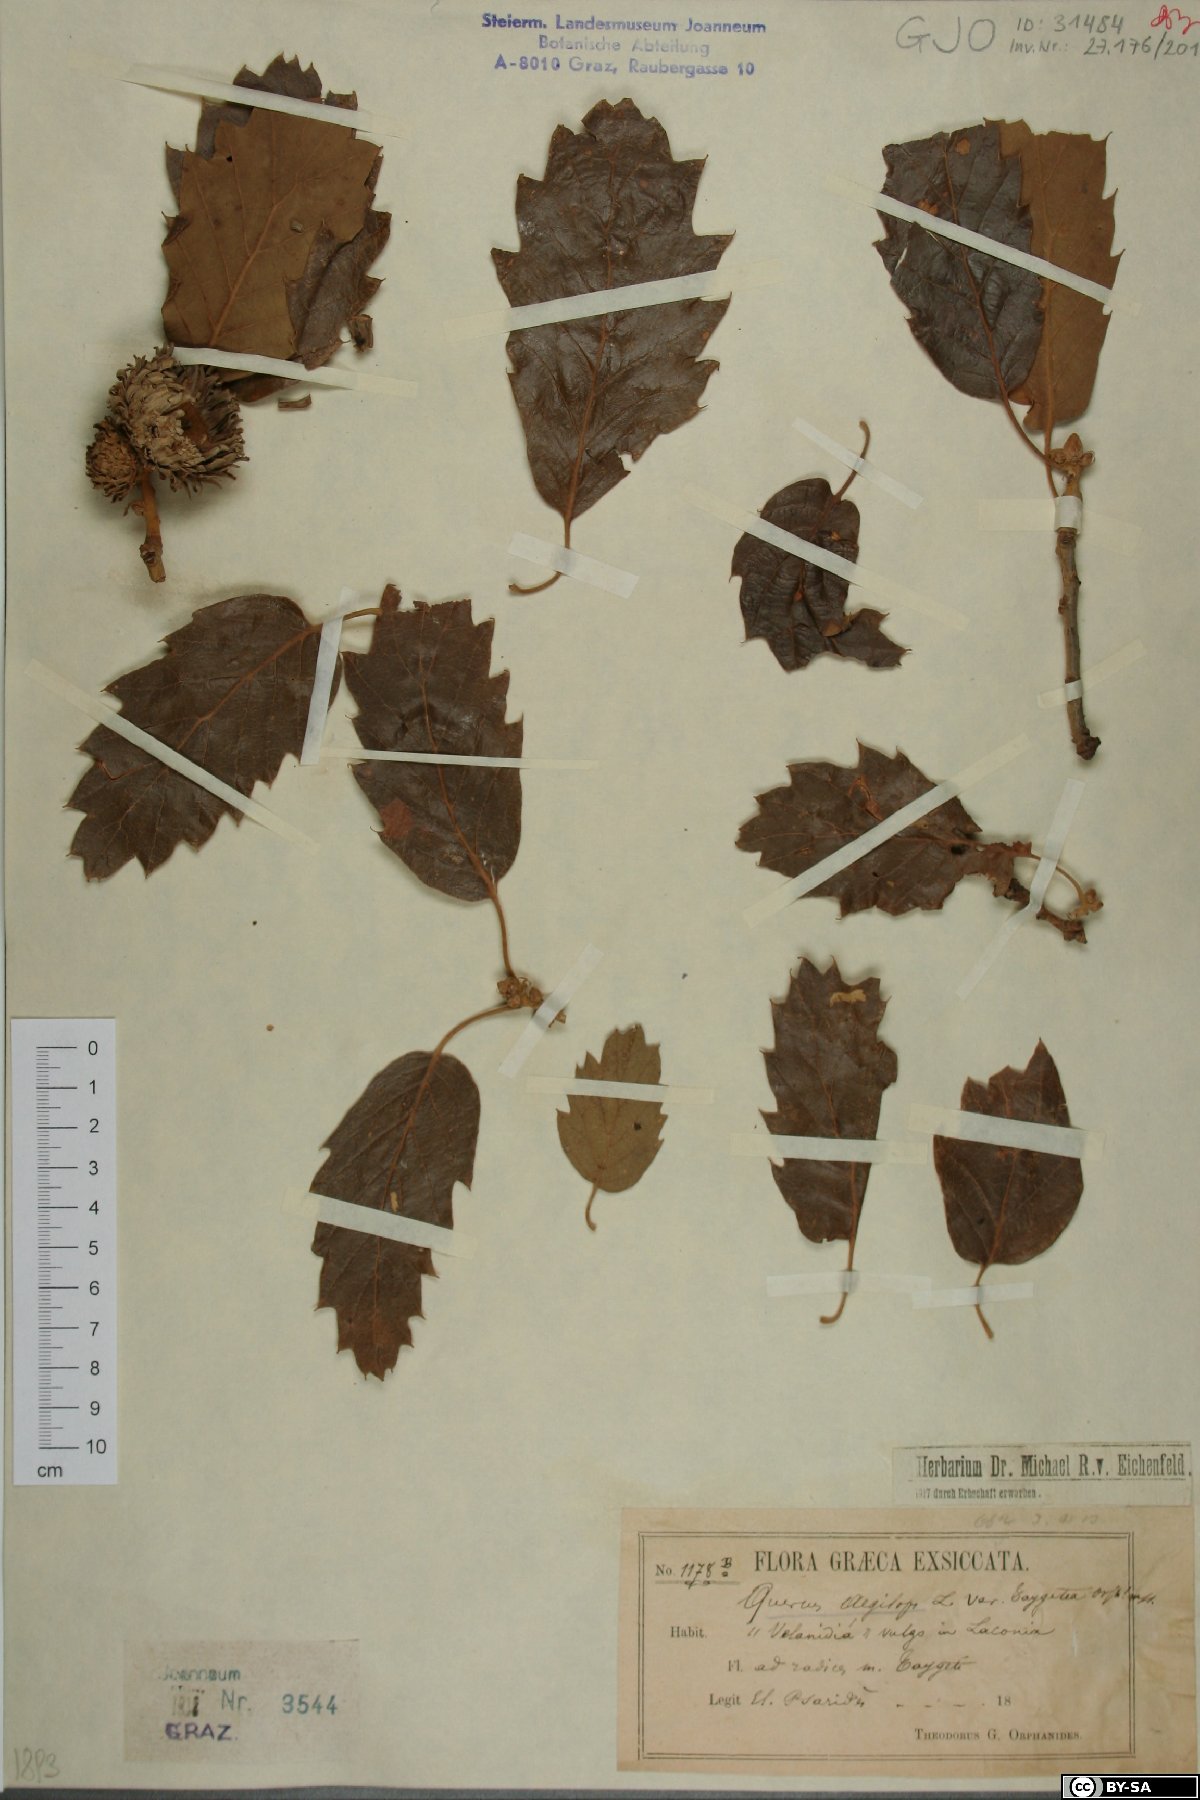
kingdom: Plantae
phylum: Tracheophyta
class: Magnoliopsida
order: Fagales
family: Fagaceae
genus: Quercus
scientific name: Quercus ithaburensis
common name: Tabor oak
